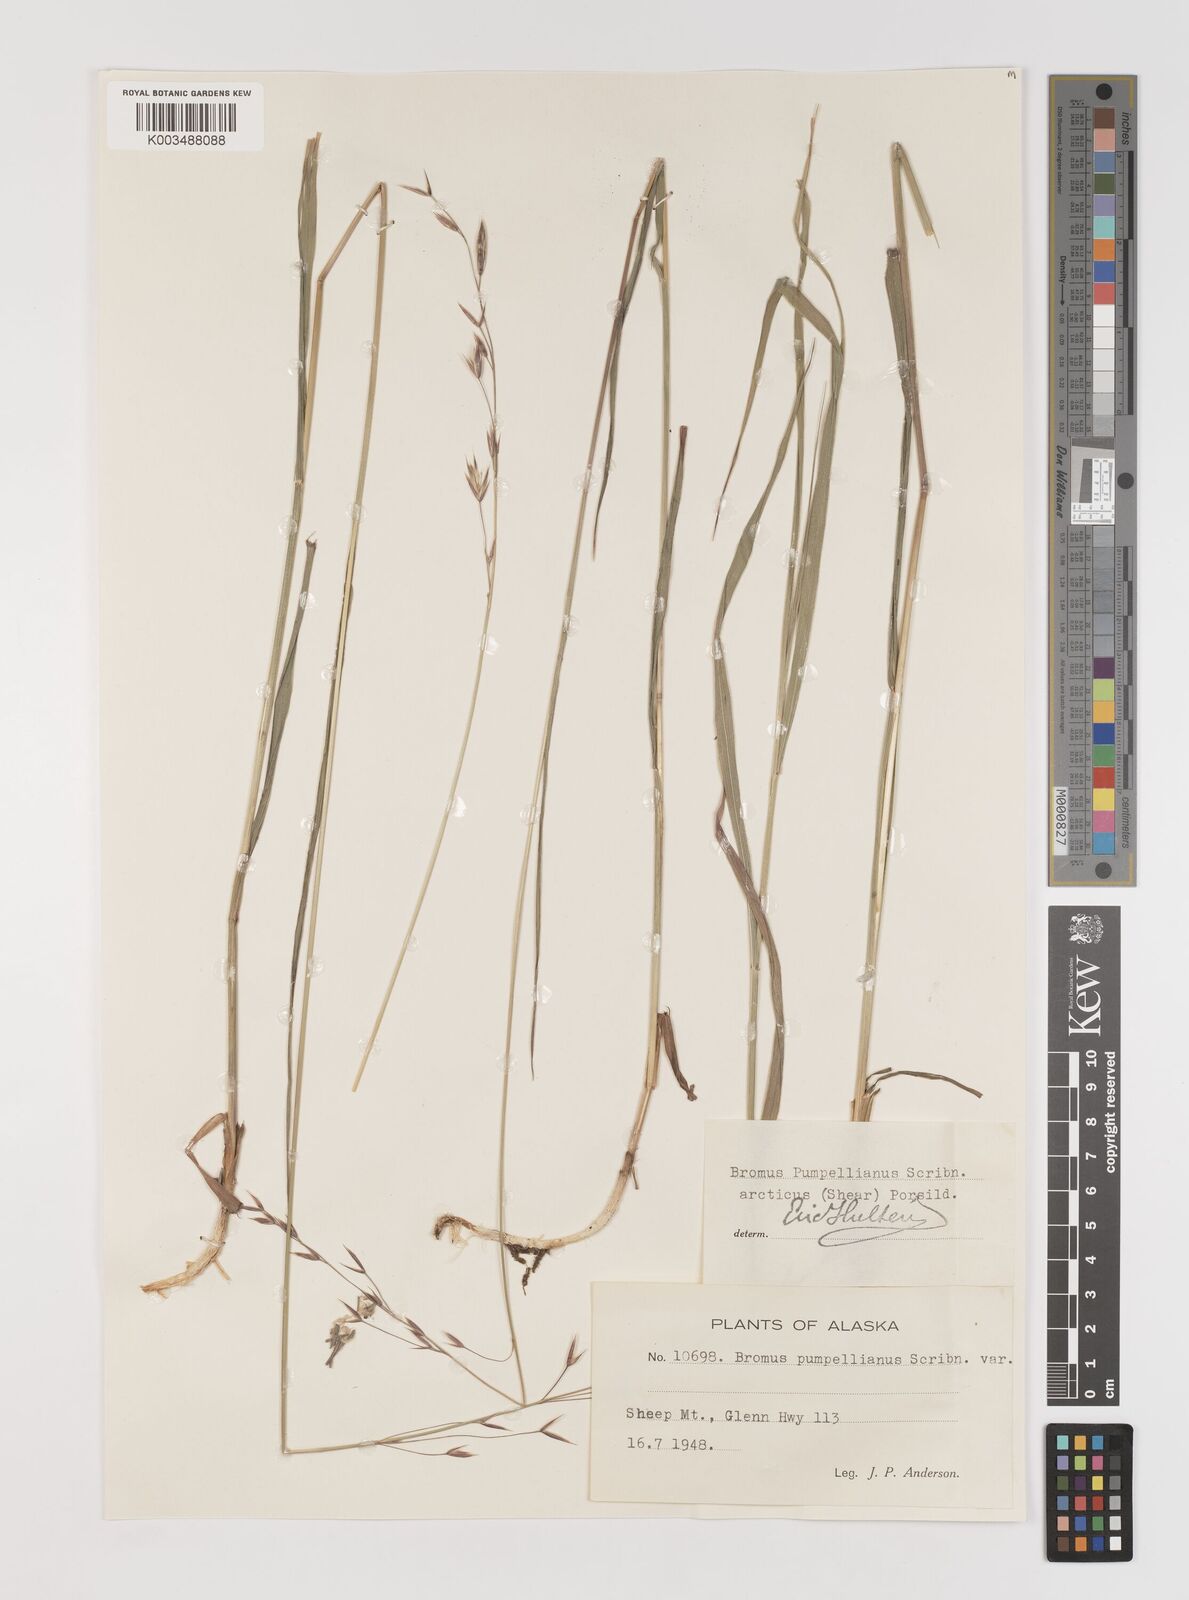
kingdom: Plantae
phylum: Tracheophyta
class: Liliopsida
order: Poales
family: Poaceae
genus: Bromus
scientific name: Bromus pumpellianus
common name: Pumpelly's brome
